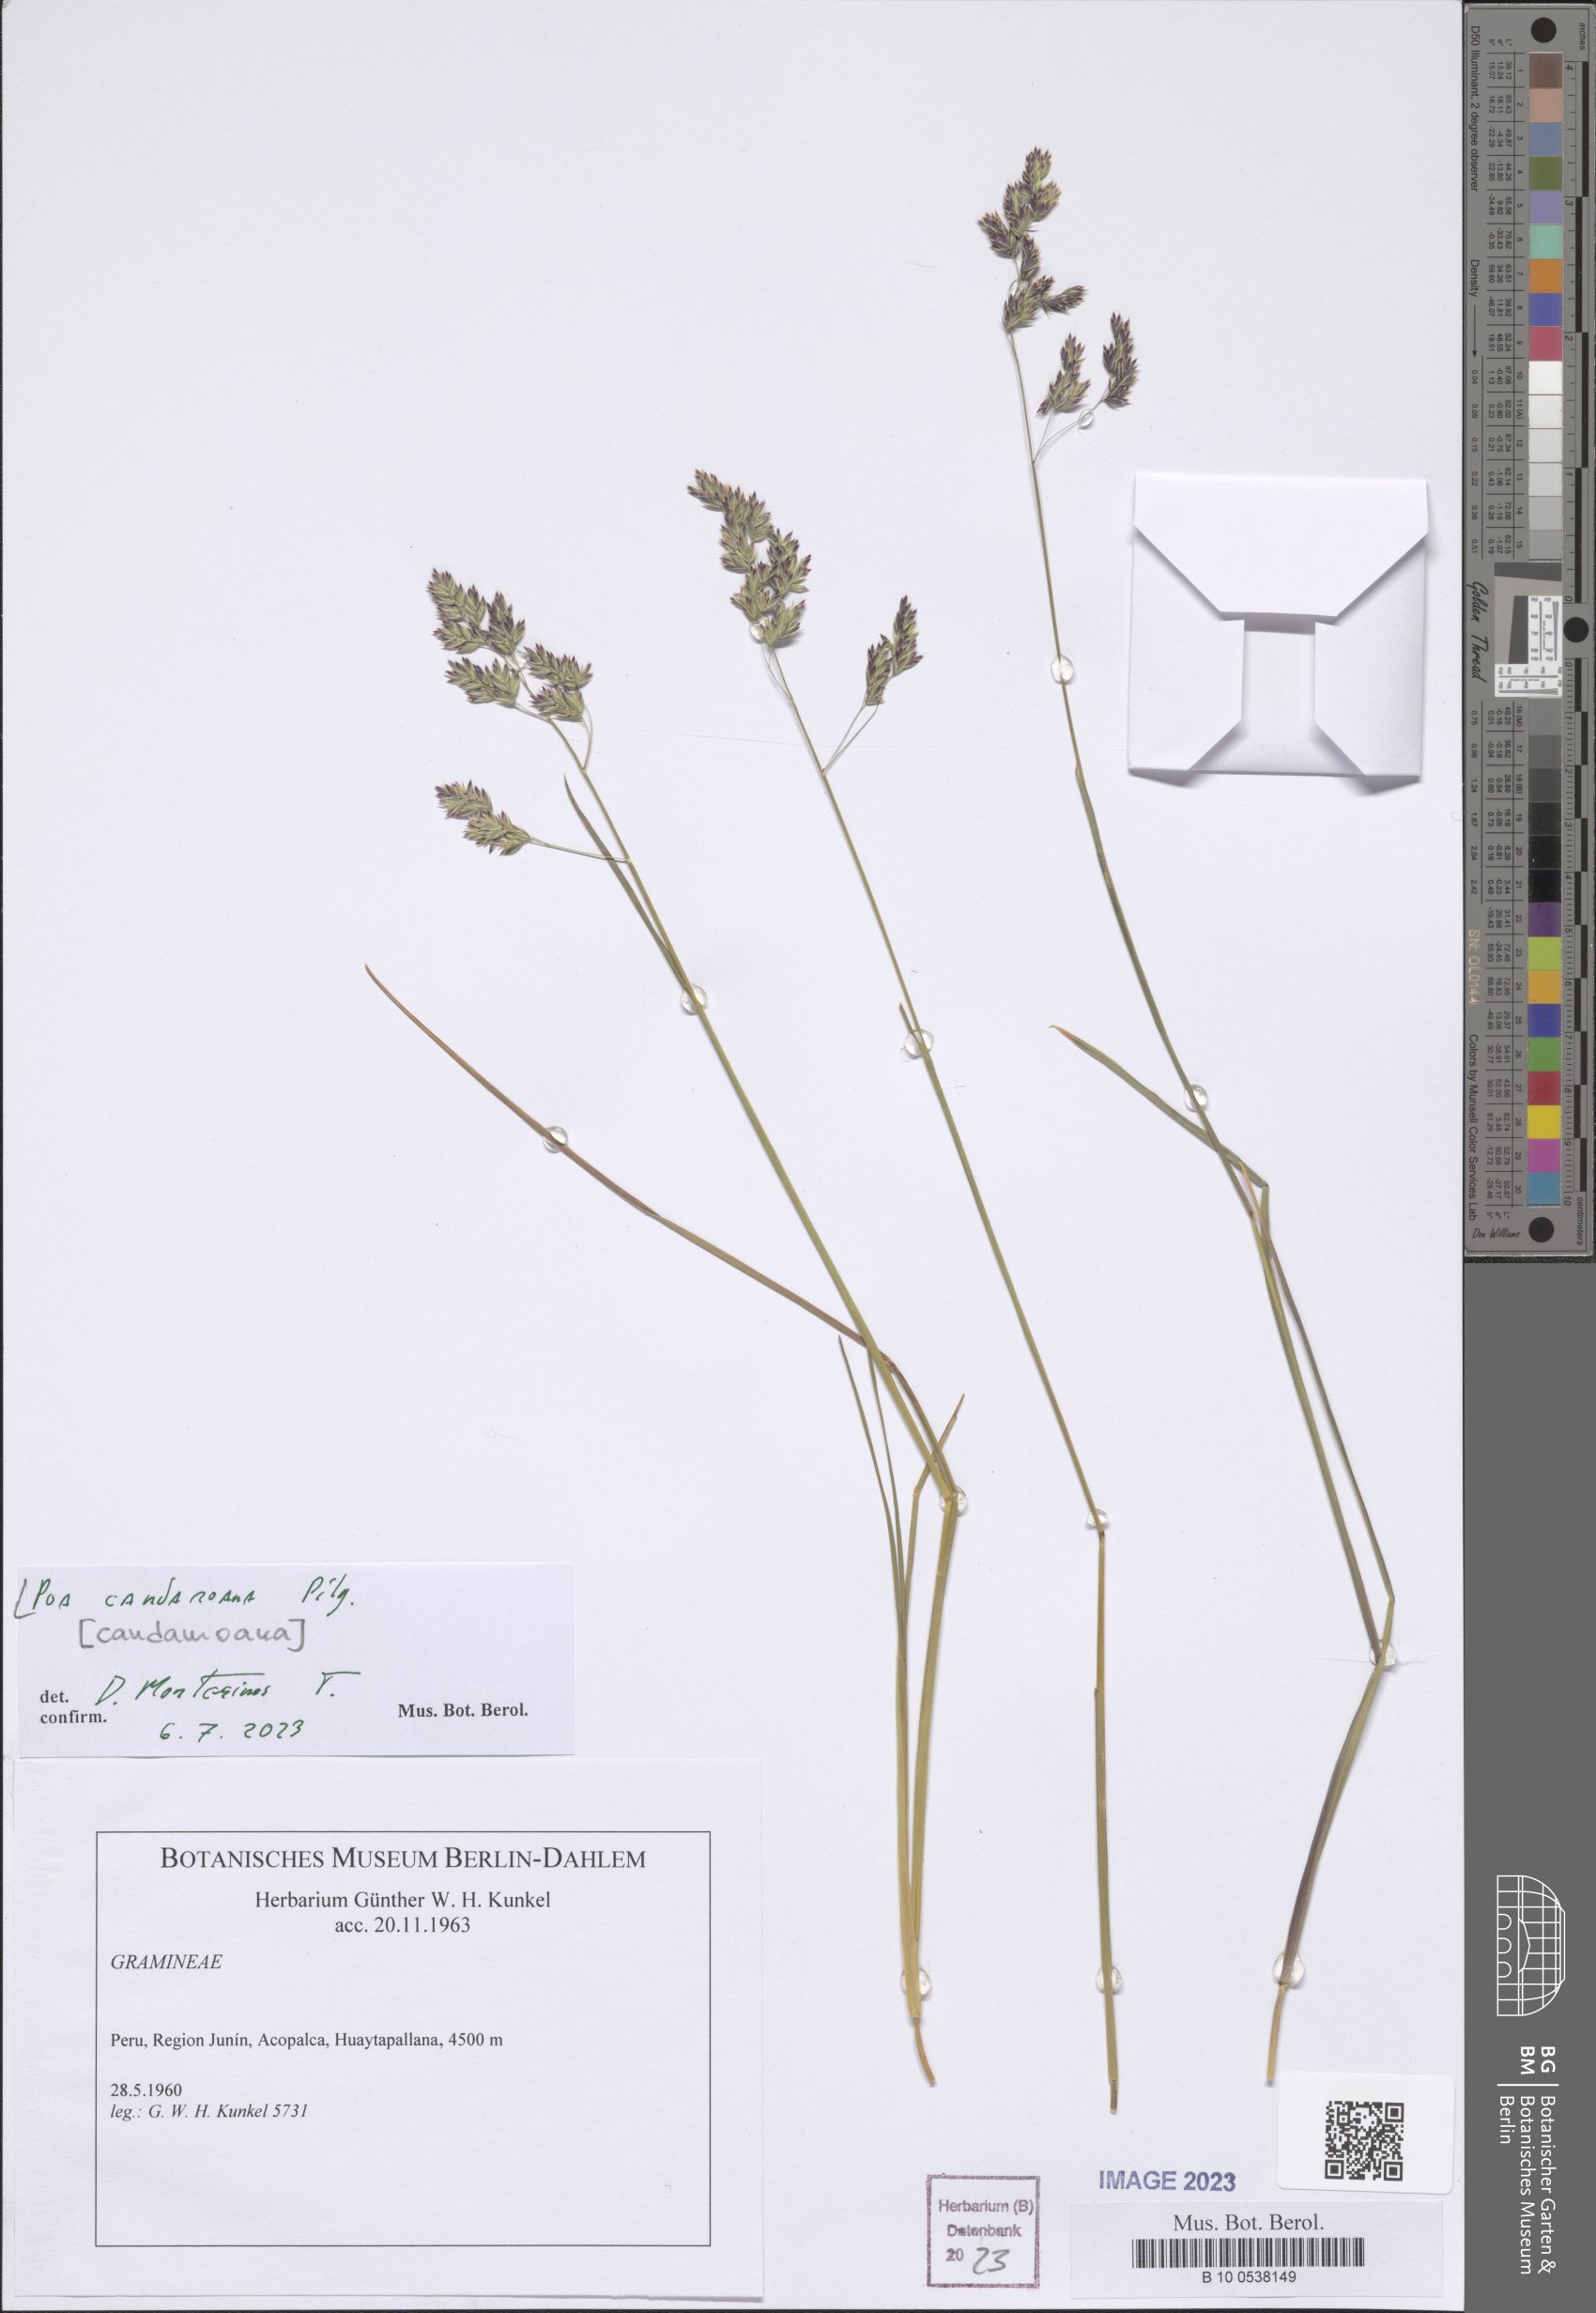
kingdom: Plantae
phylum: Tracheophyta
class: Liliopsida
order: Poales
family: Poaceae
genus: Poa
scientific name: Poa adusta
